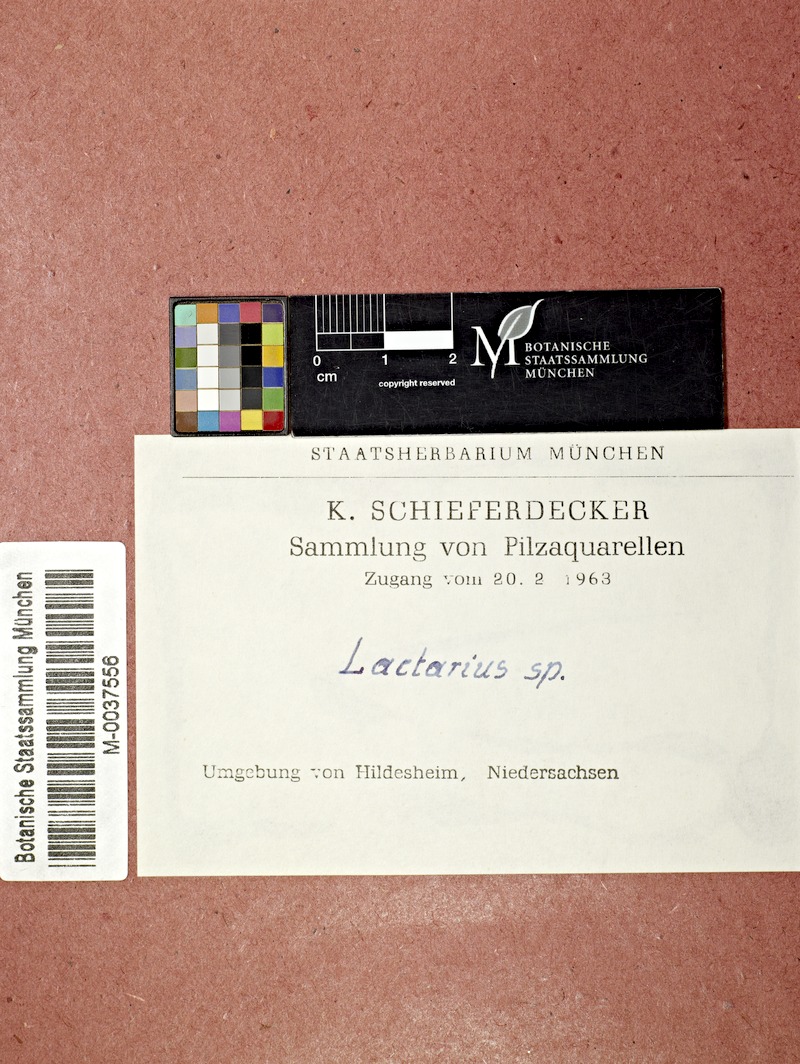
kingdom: Fungi
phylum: Basidiomycota
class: Agaricomycetes
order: Russulales
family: Russulaceae
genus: Lactarius
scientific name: Lactarius
